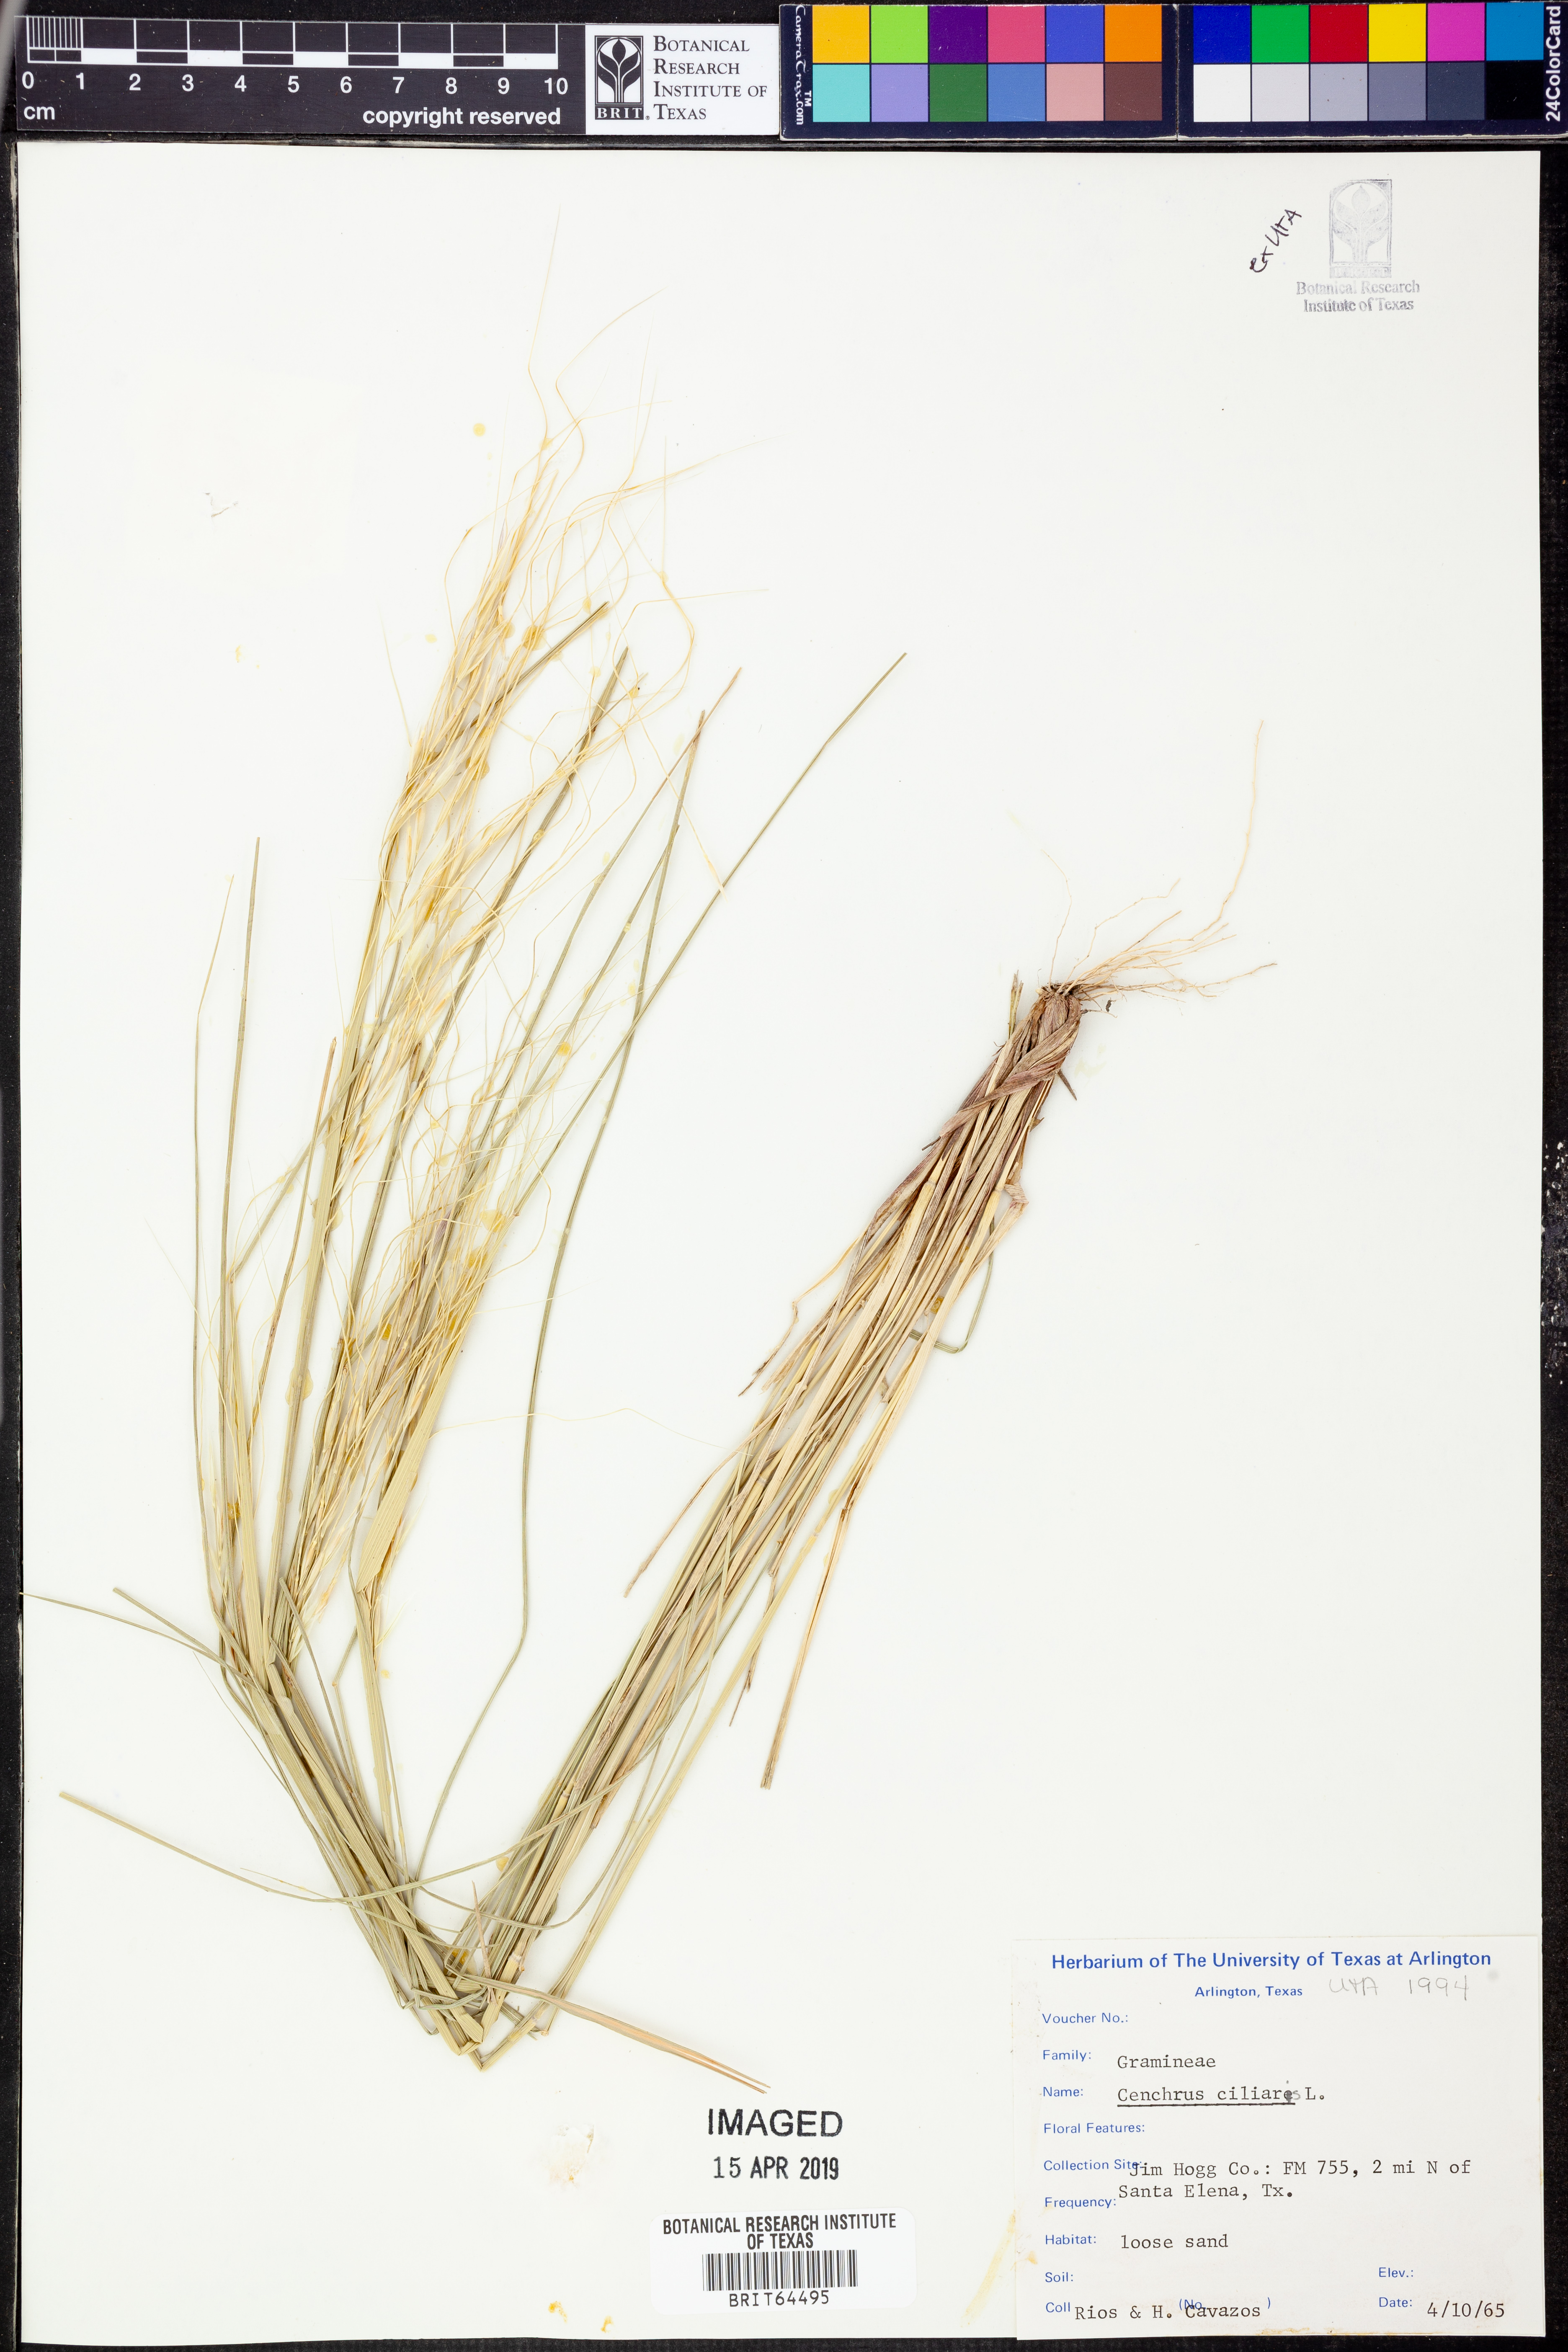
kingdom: Plantae
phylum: Tracheophyta
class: Liliopsida
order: Poales
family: Poaceae
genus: Cenchrus
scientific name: Cenchrus ciliaris
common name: Buffelgrass
